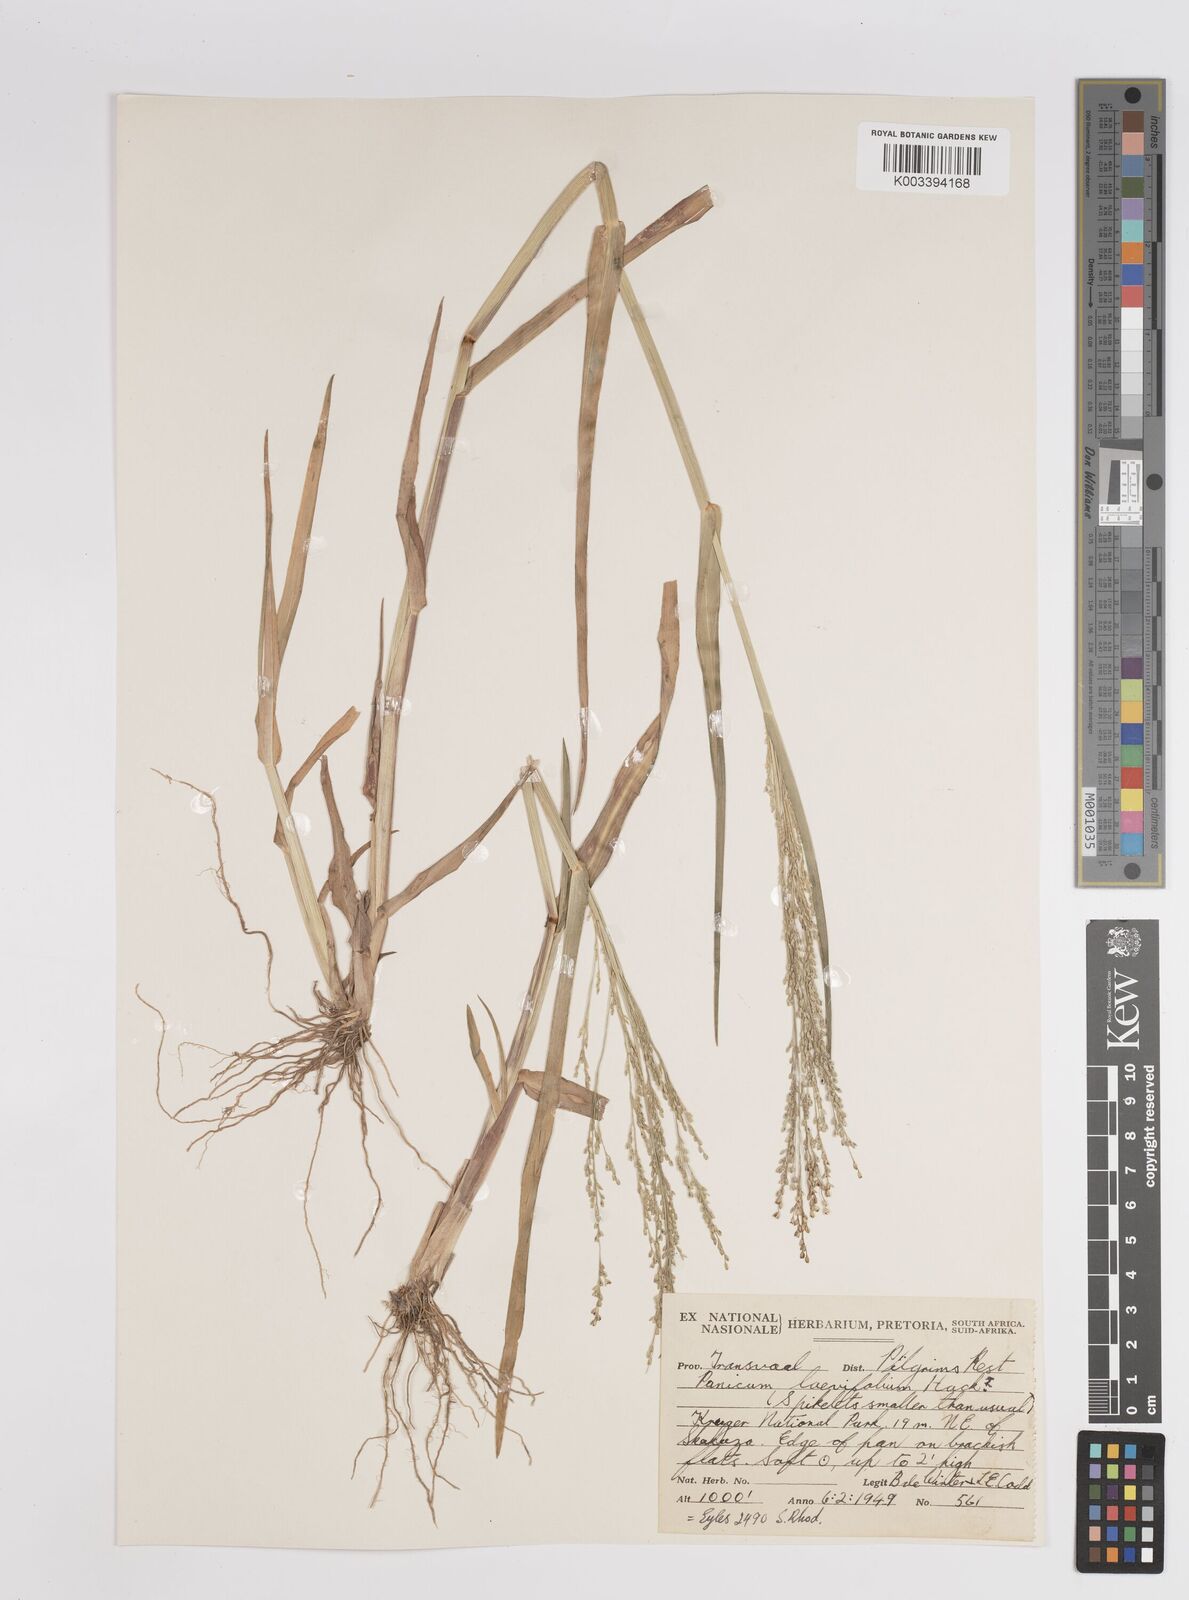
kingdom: Plantae
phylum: Tracheophyta
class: Liliopsida
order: Poales
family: Poaceae
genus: Panicum
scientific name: Panicum schinzii
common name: Sweet grass
